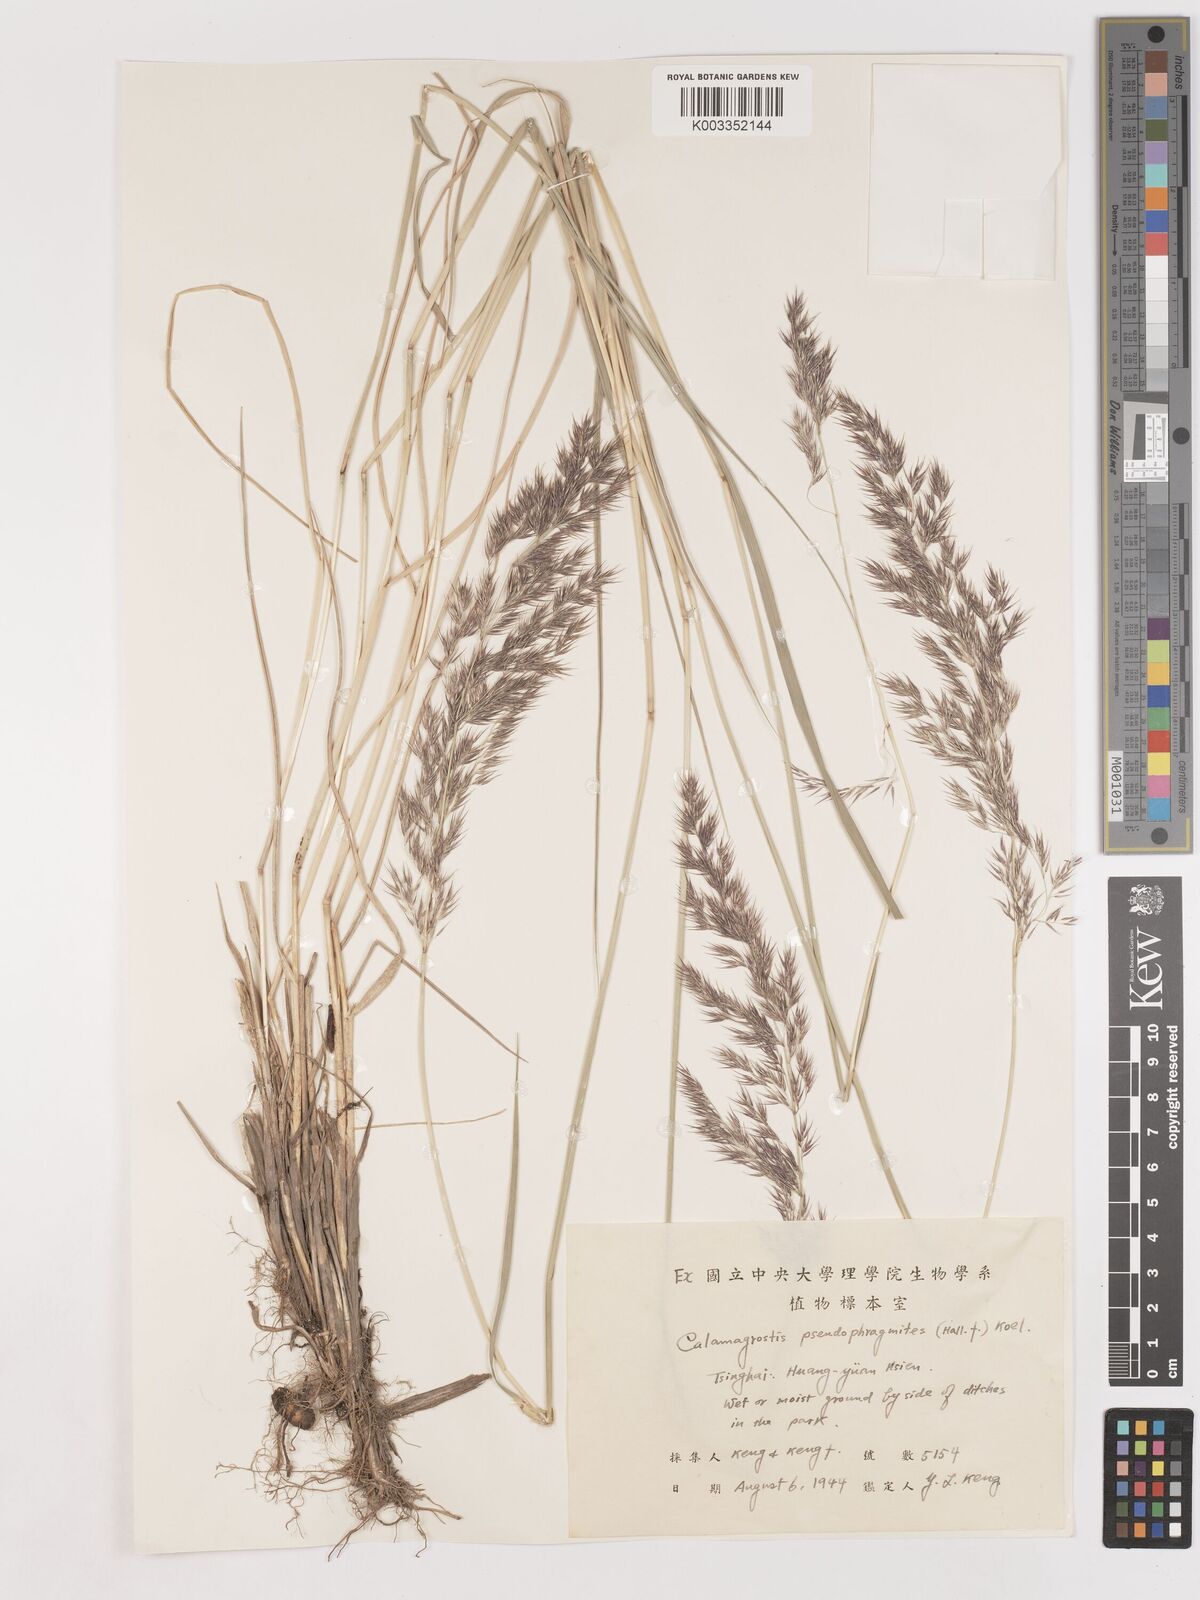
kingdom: Plantae
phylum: Tracheophyta
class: Liliopsida
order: Poales
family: Poaceae
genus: Calamagrostis
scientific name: Calamagrostis pseudophragmites
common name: Coastal small-reed
